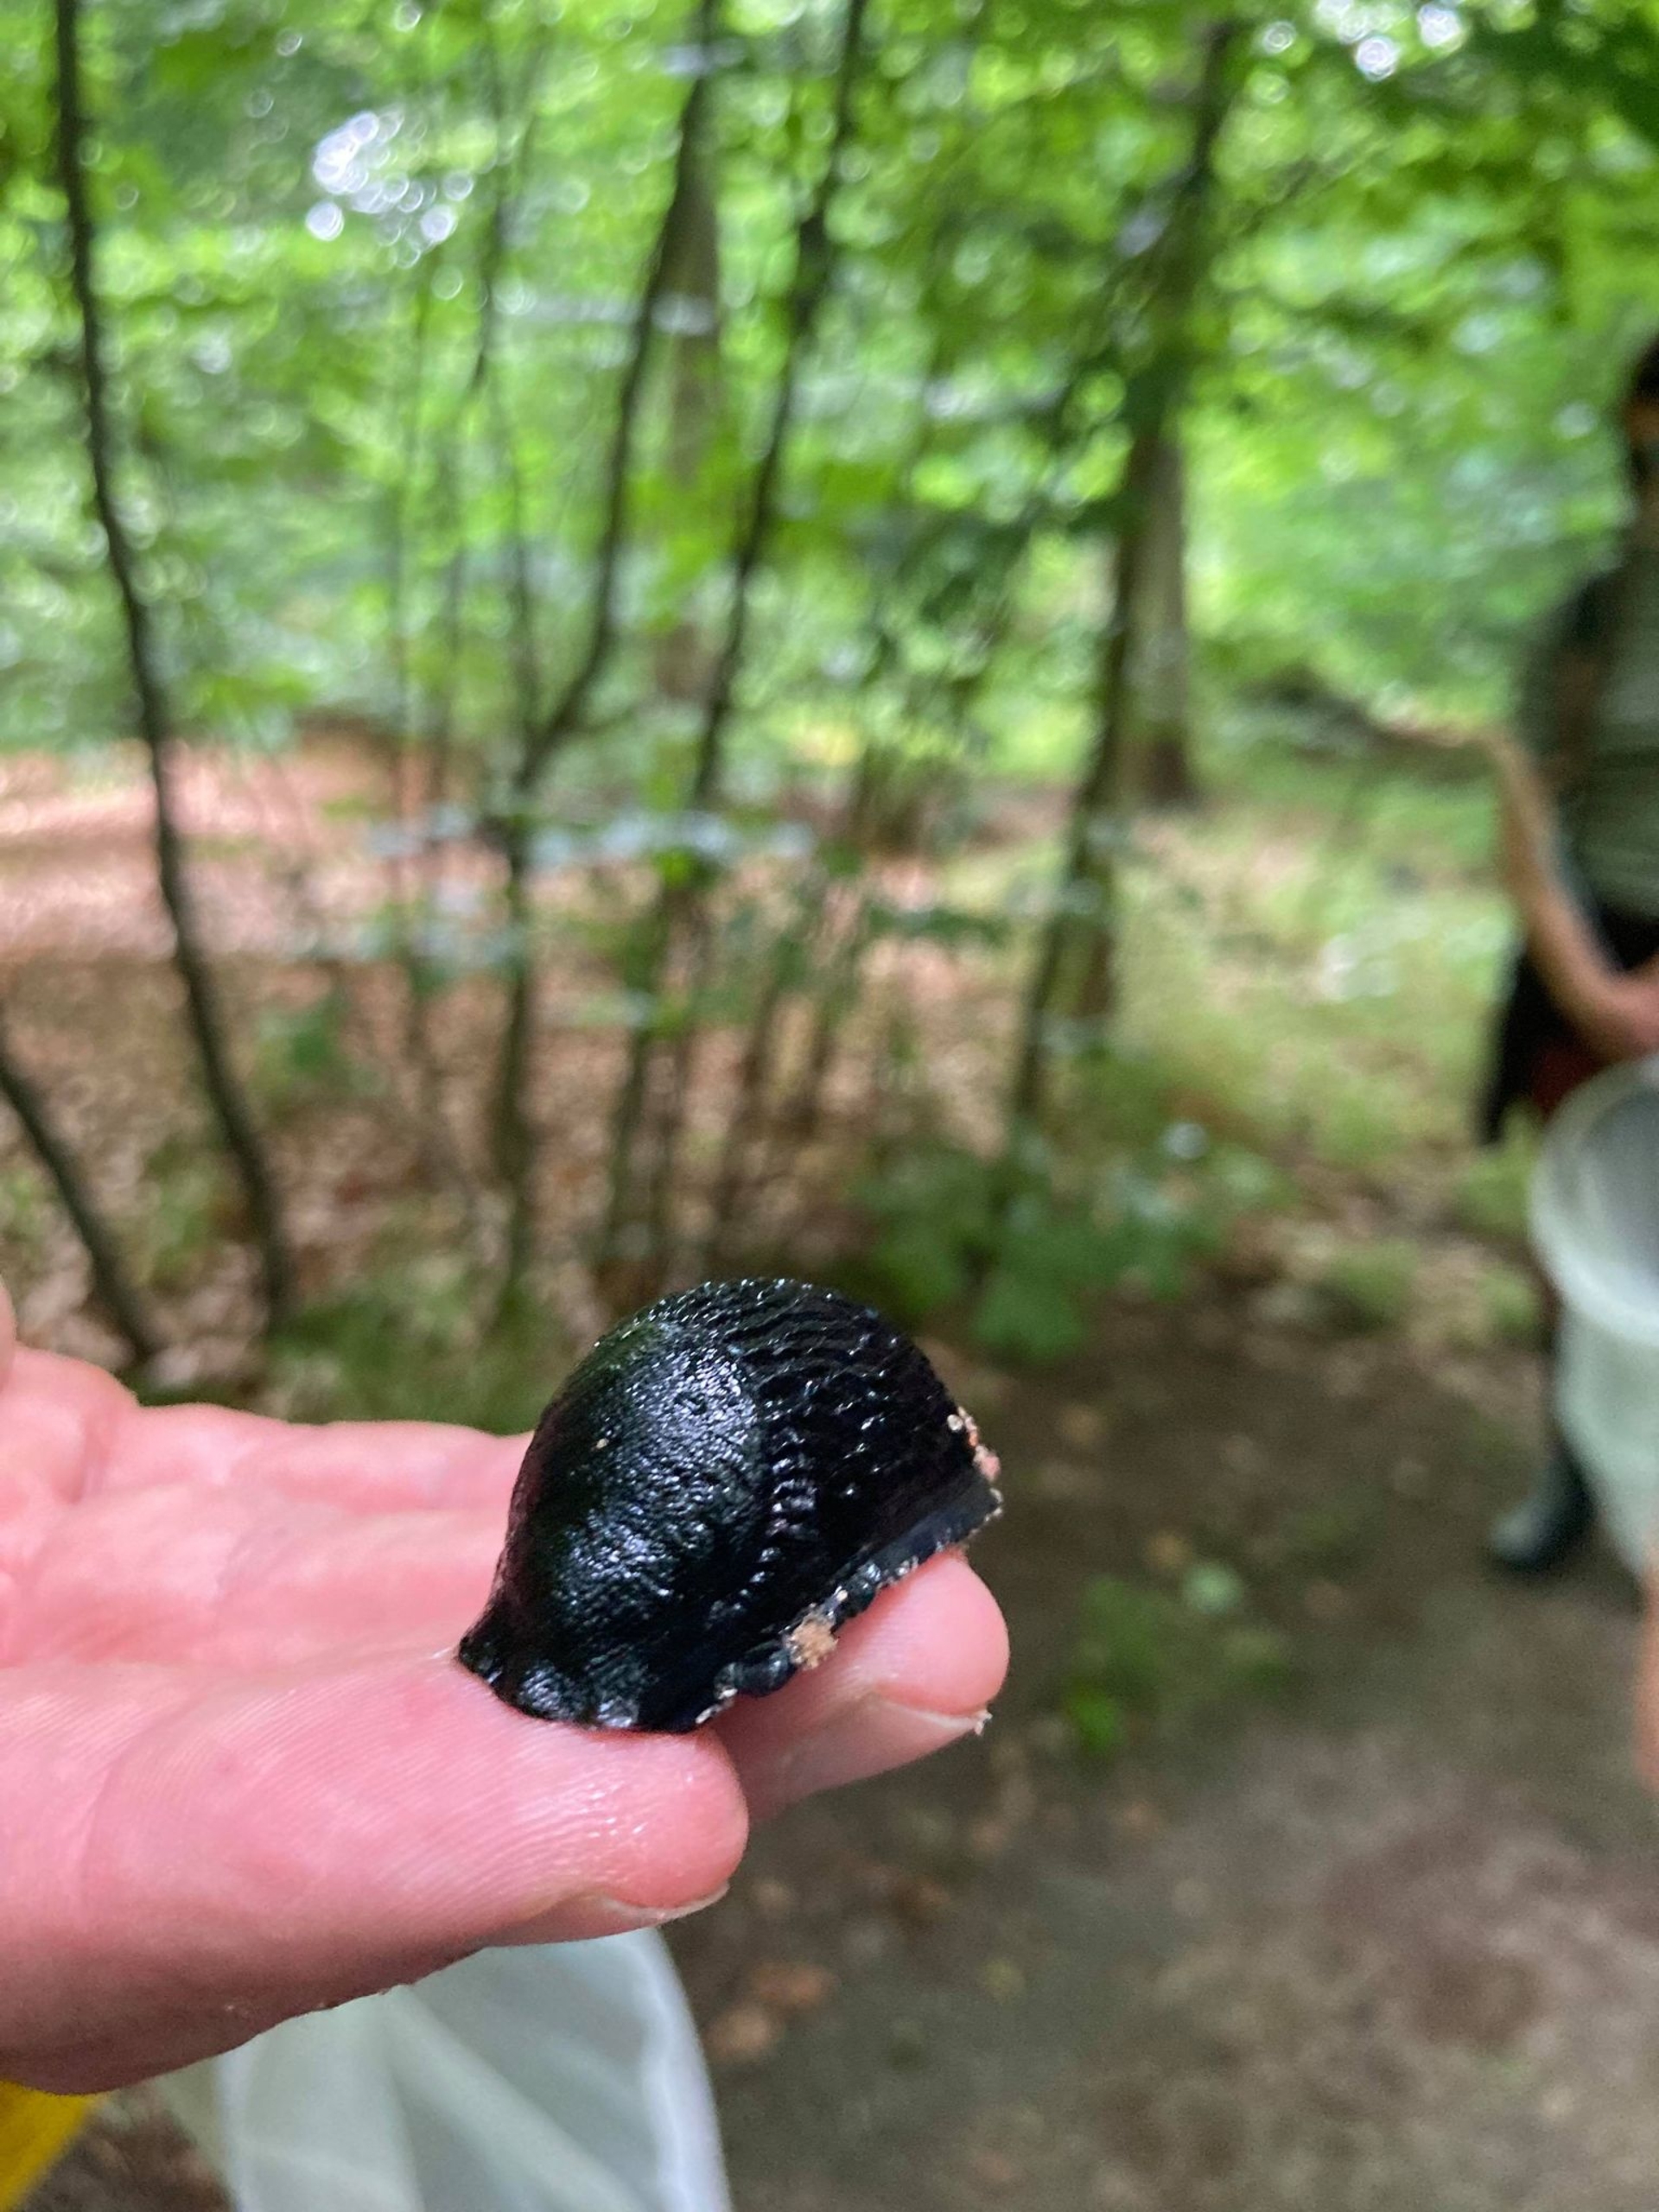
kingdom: Animalia
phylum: Mollusca
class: Gastropoda
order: Stylommatophora
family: Arionidae
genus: Arion
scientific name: Arion ater
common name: Sort skovsnegl
